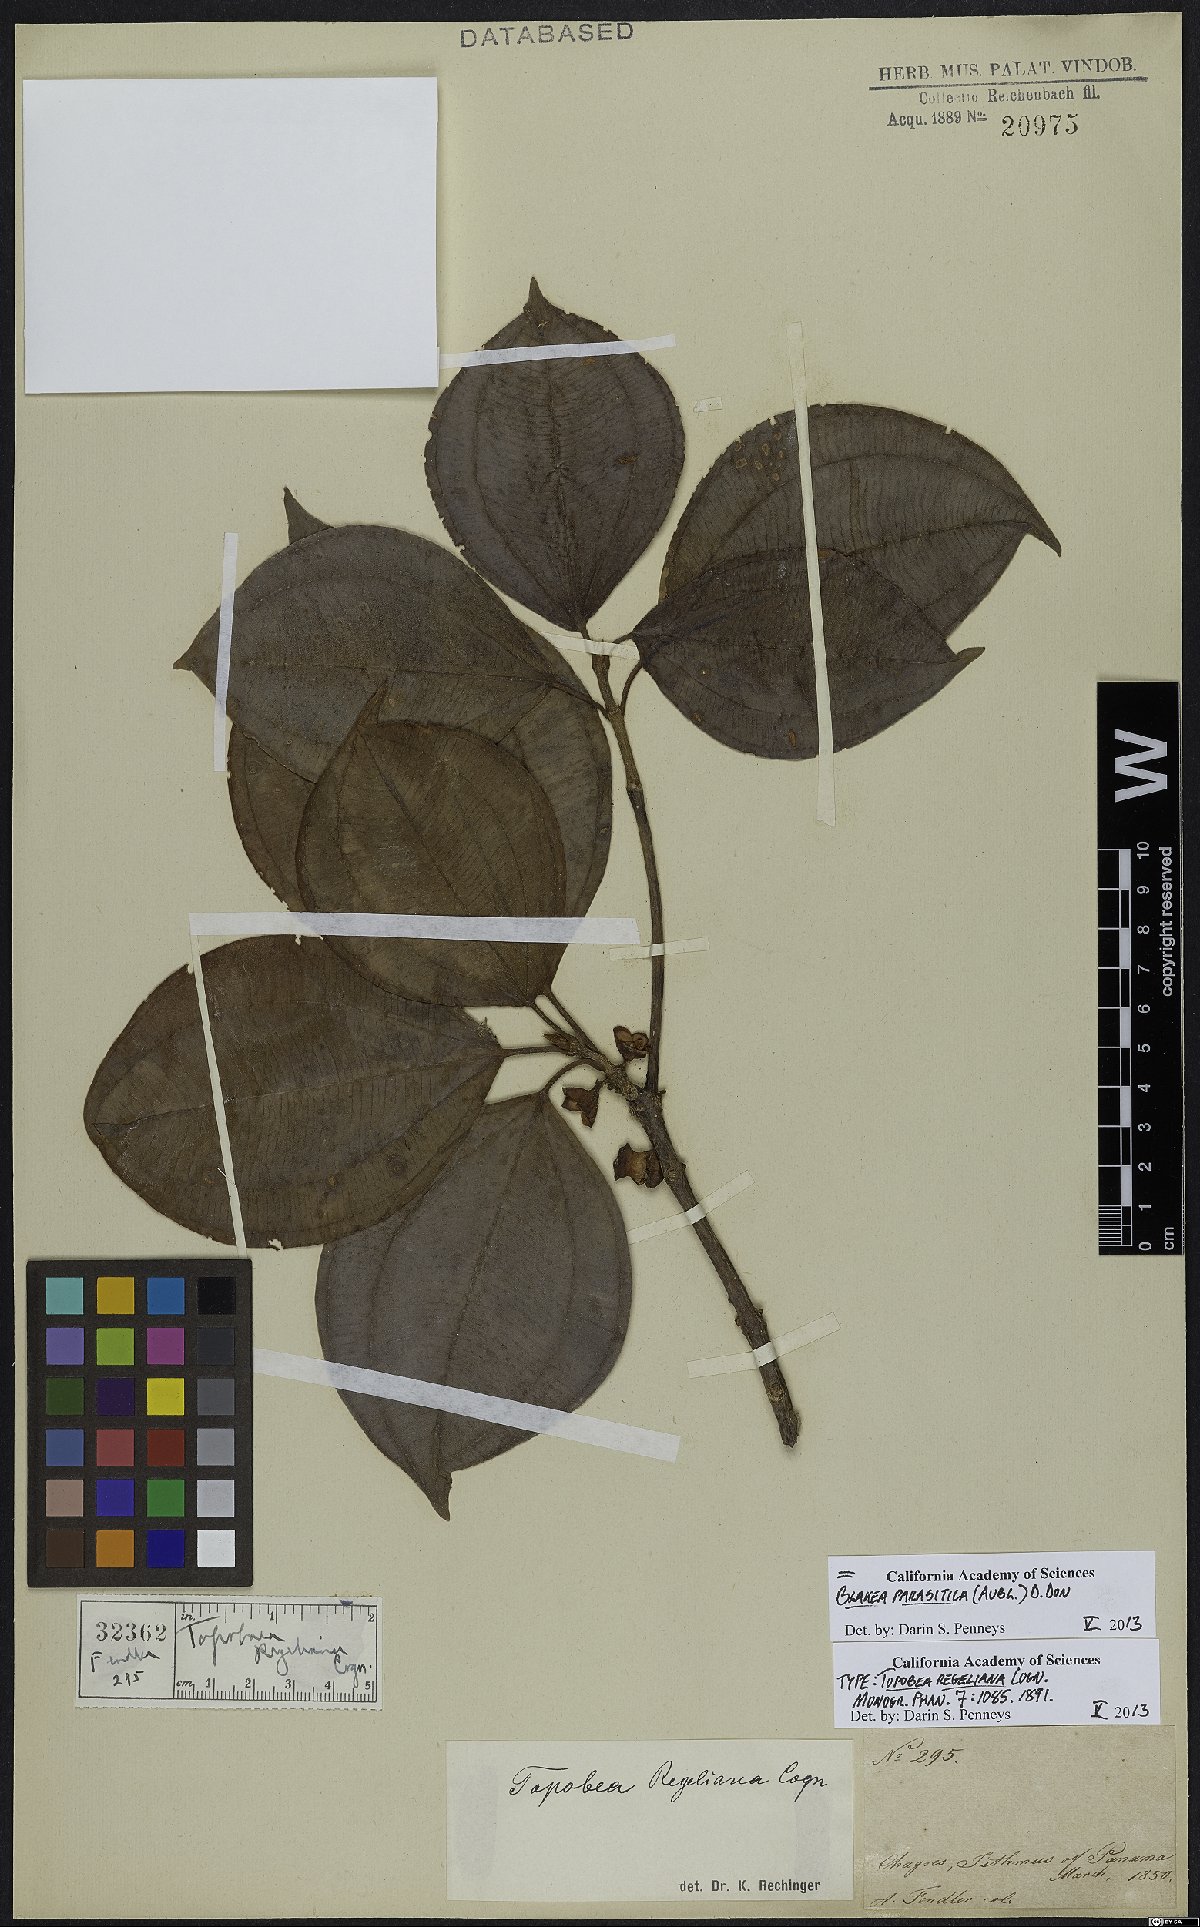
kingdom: Plantae
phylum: Tracheophyta
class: Magnoliopsida
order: Myrtales
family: Melastomataceae
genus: Blakea
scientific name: Blakea parasitica
